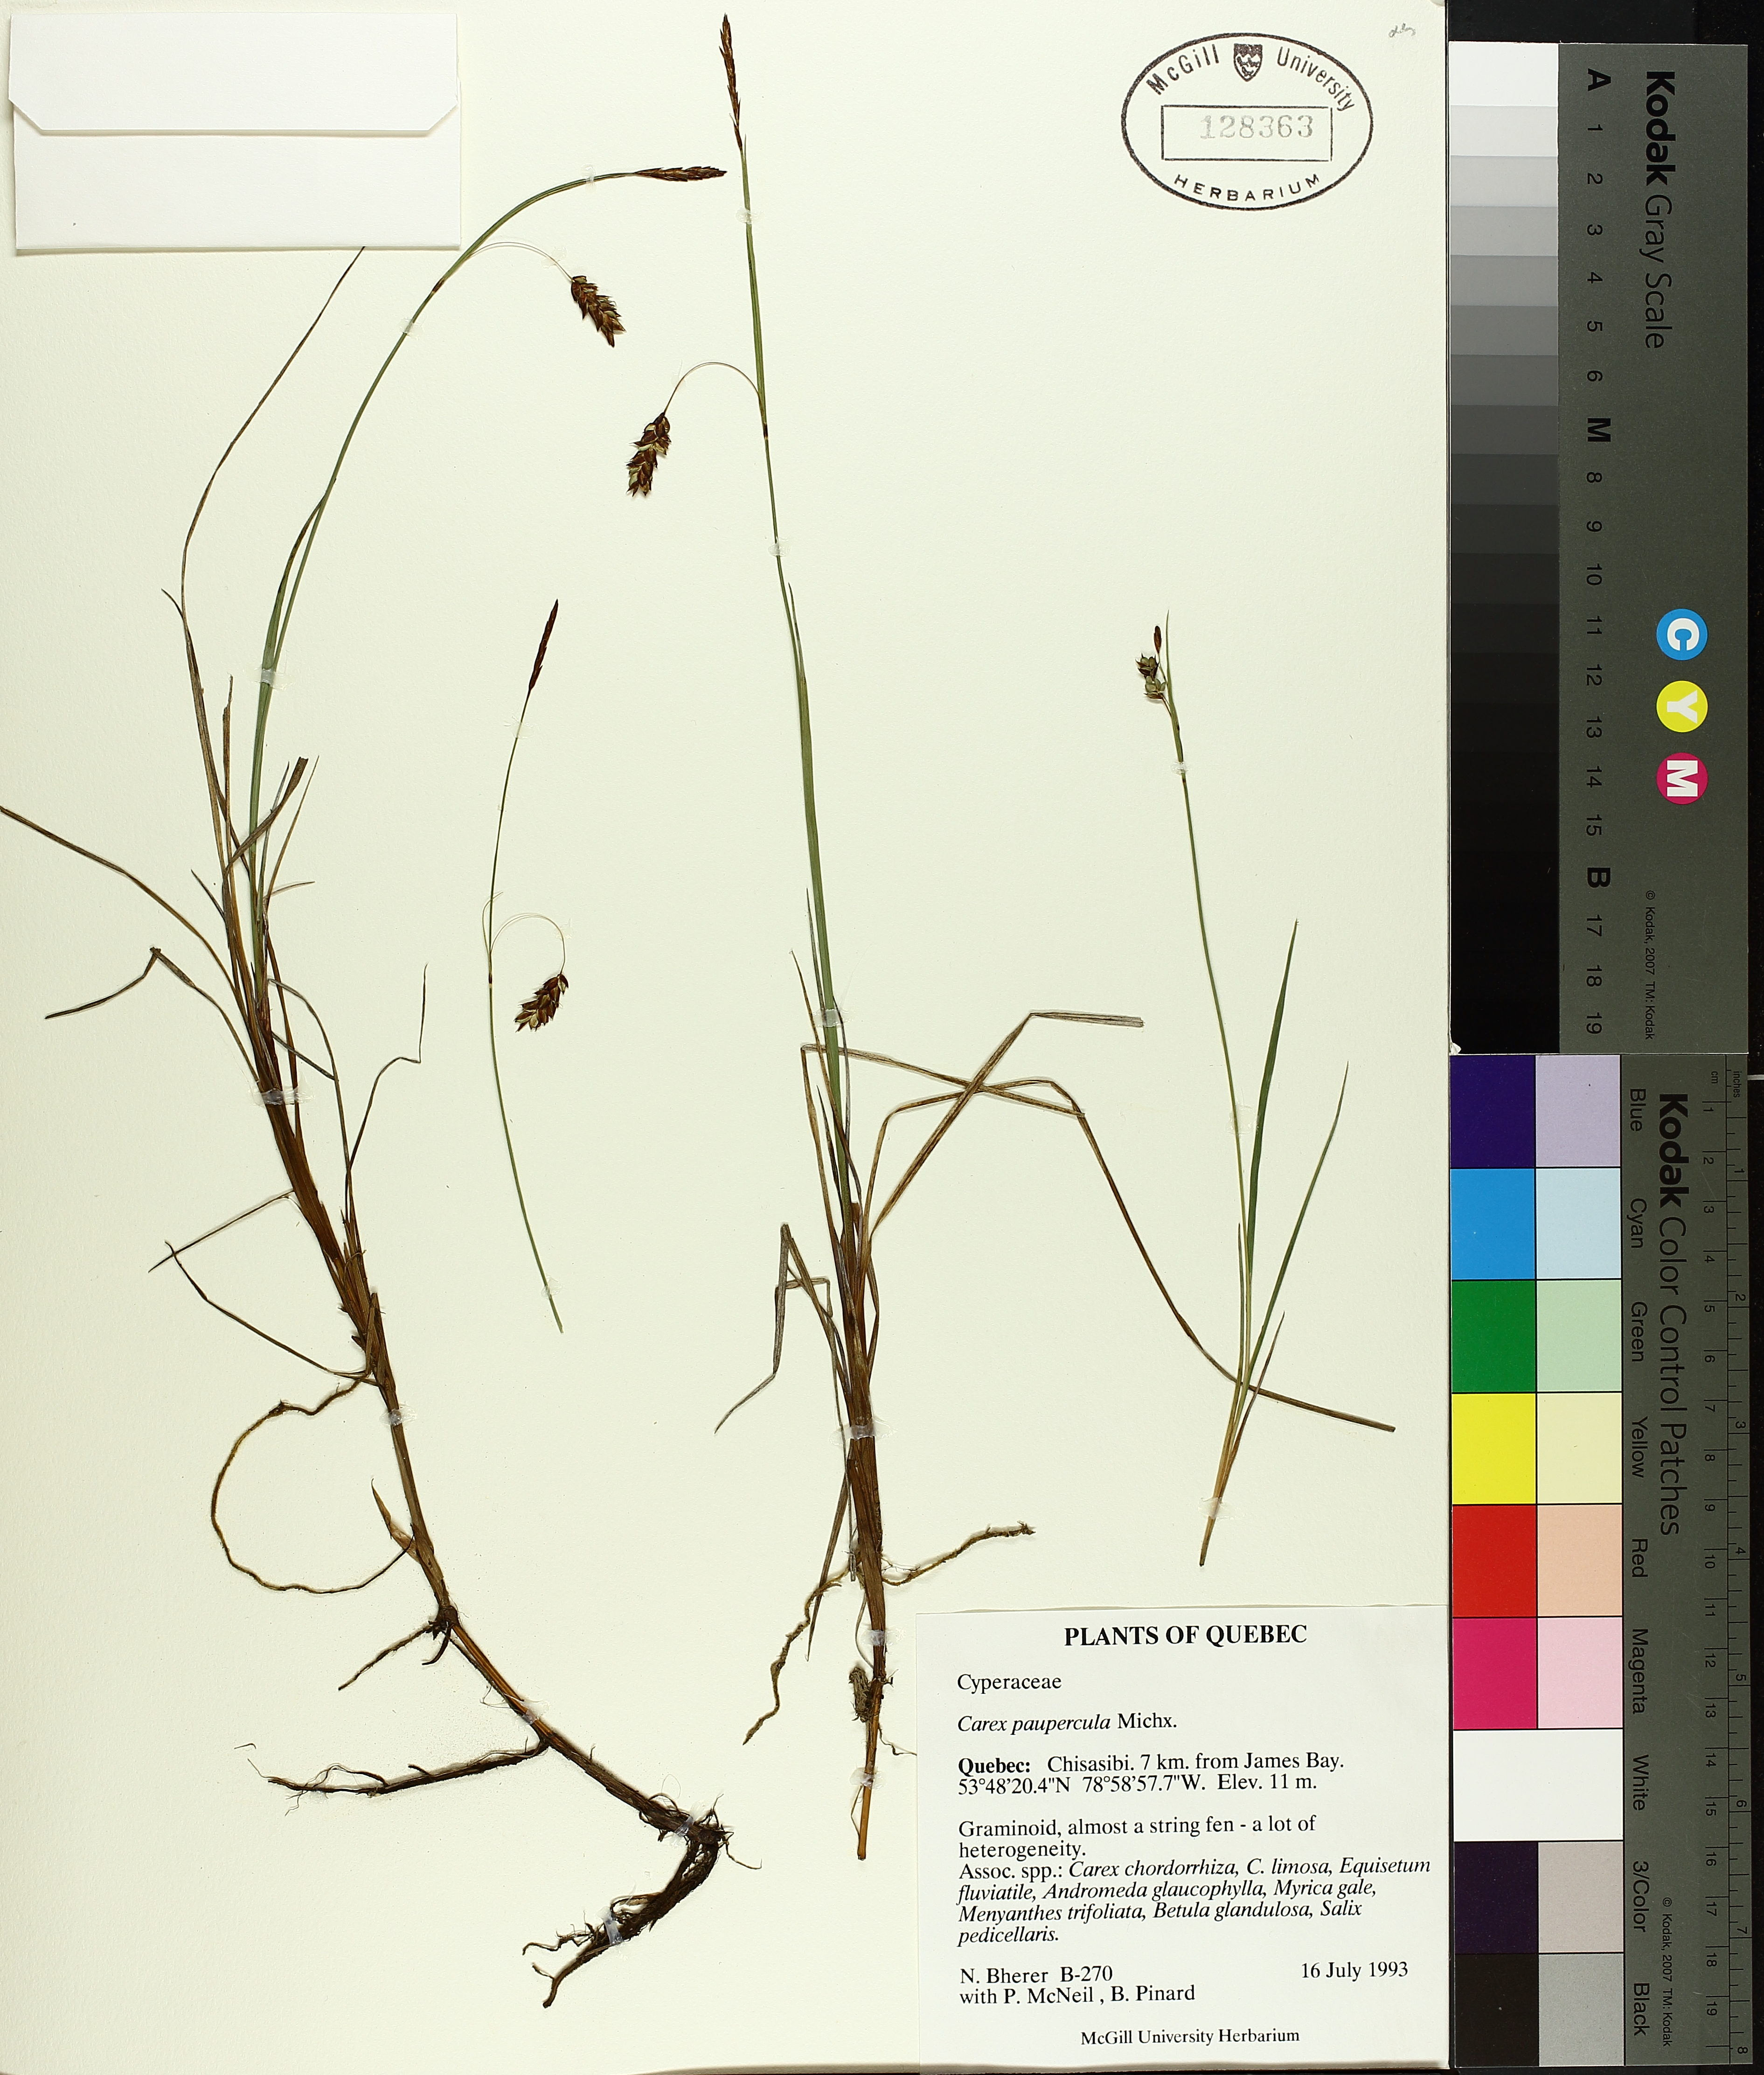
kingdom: Plantae
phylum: Tracheophyta
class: Liliopsida
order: Poales
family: Cyperaceae
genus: Carex
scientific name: Carex aquatilis
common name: Water sedge
